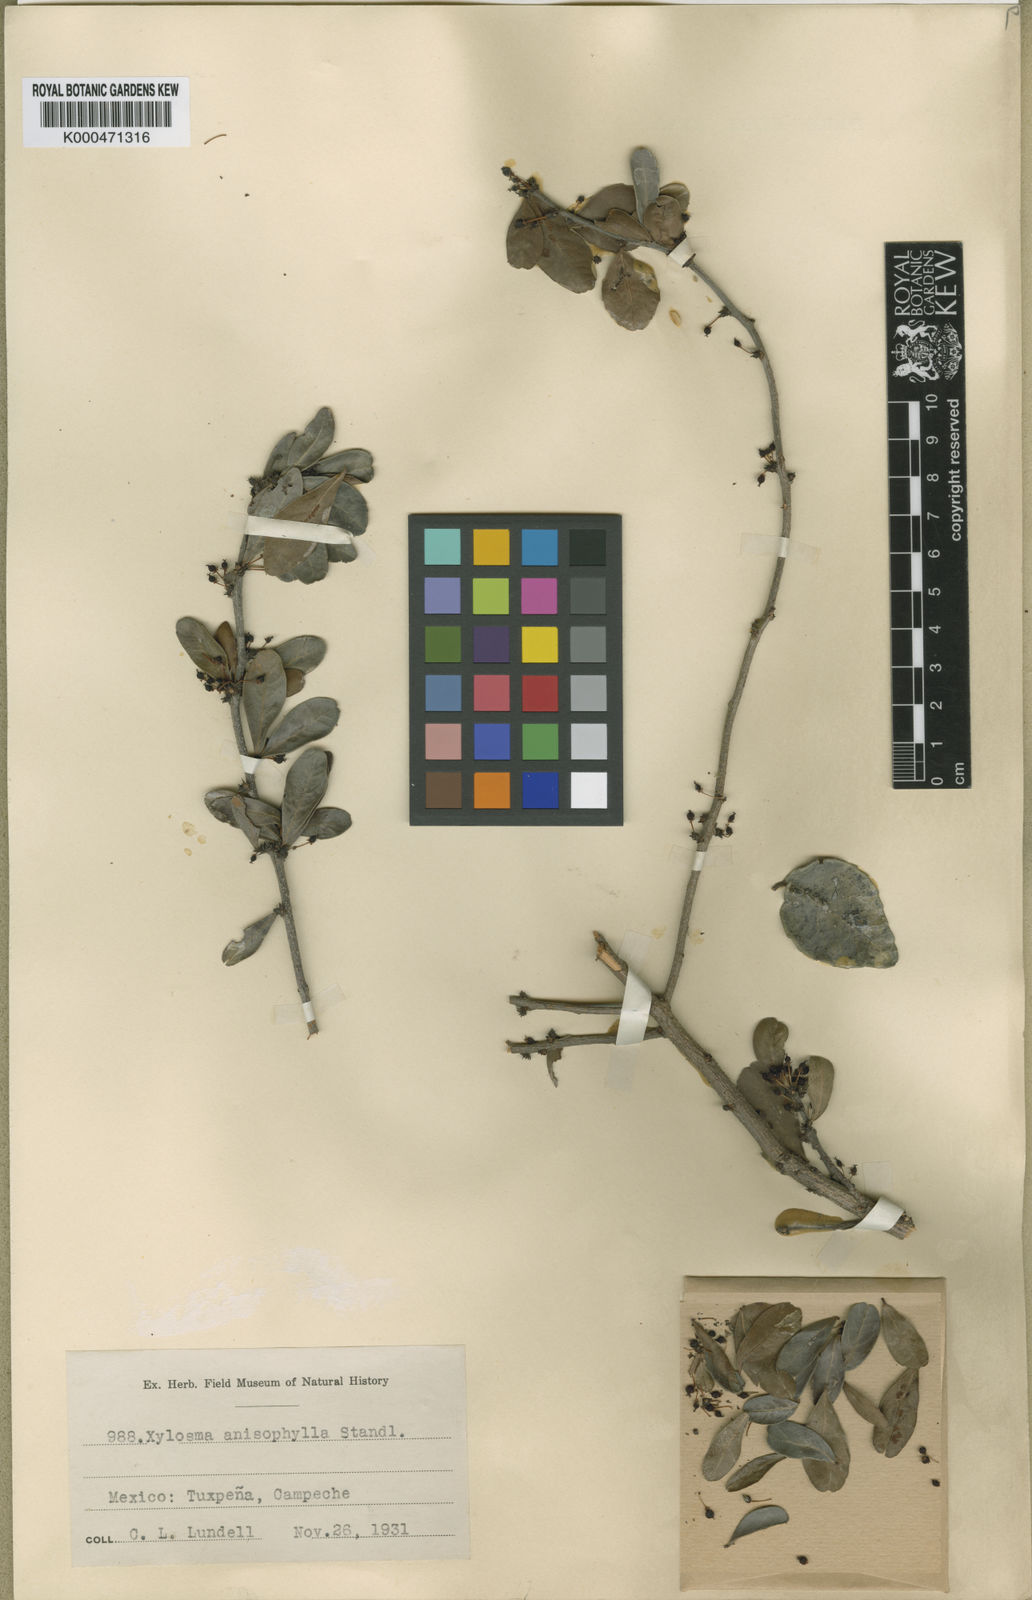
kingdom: Plantae
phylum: Tracheophyta
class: Magnoliopsida
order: Malpighiales
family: Salicaceae
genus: Xylosma
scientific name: Xylosma flexuosa
